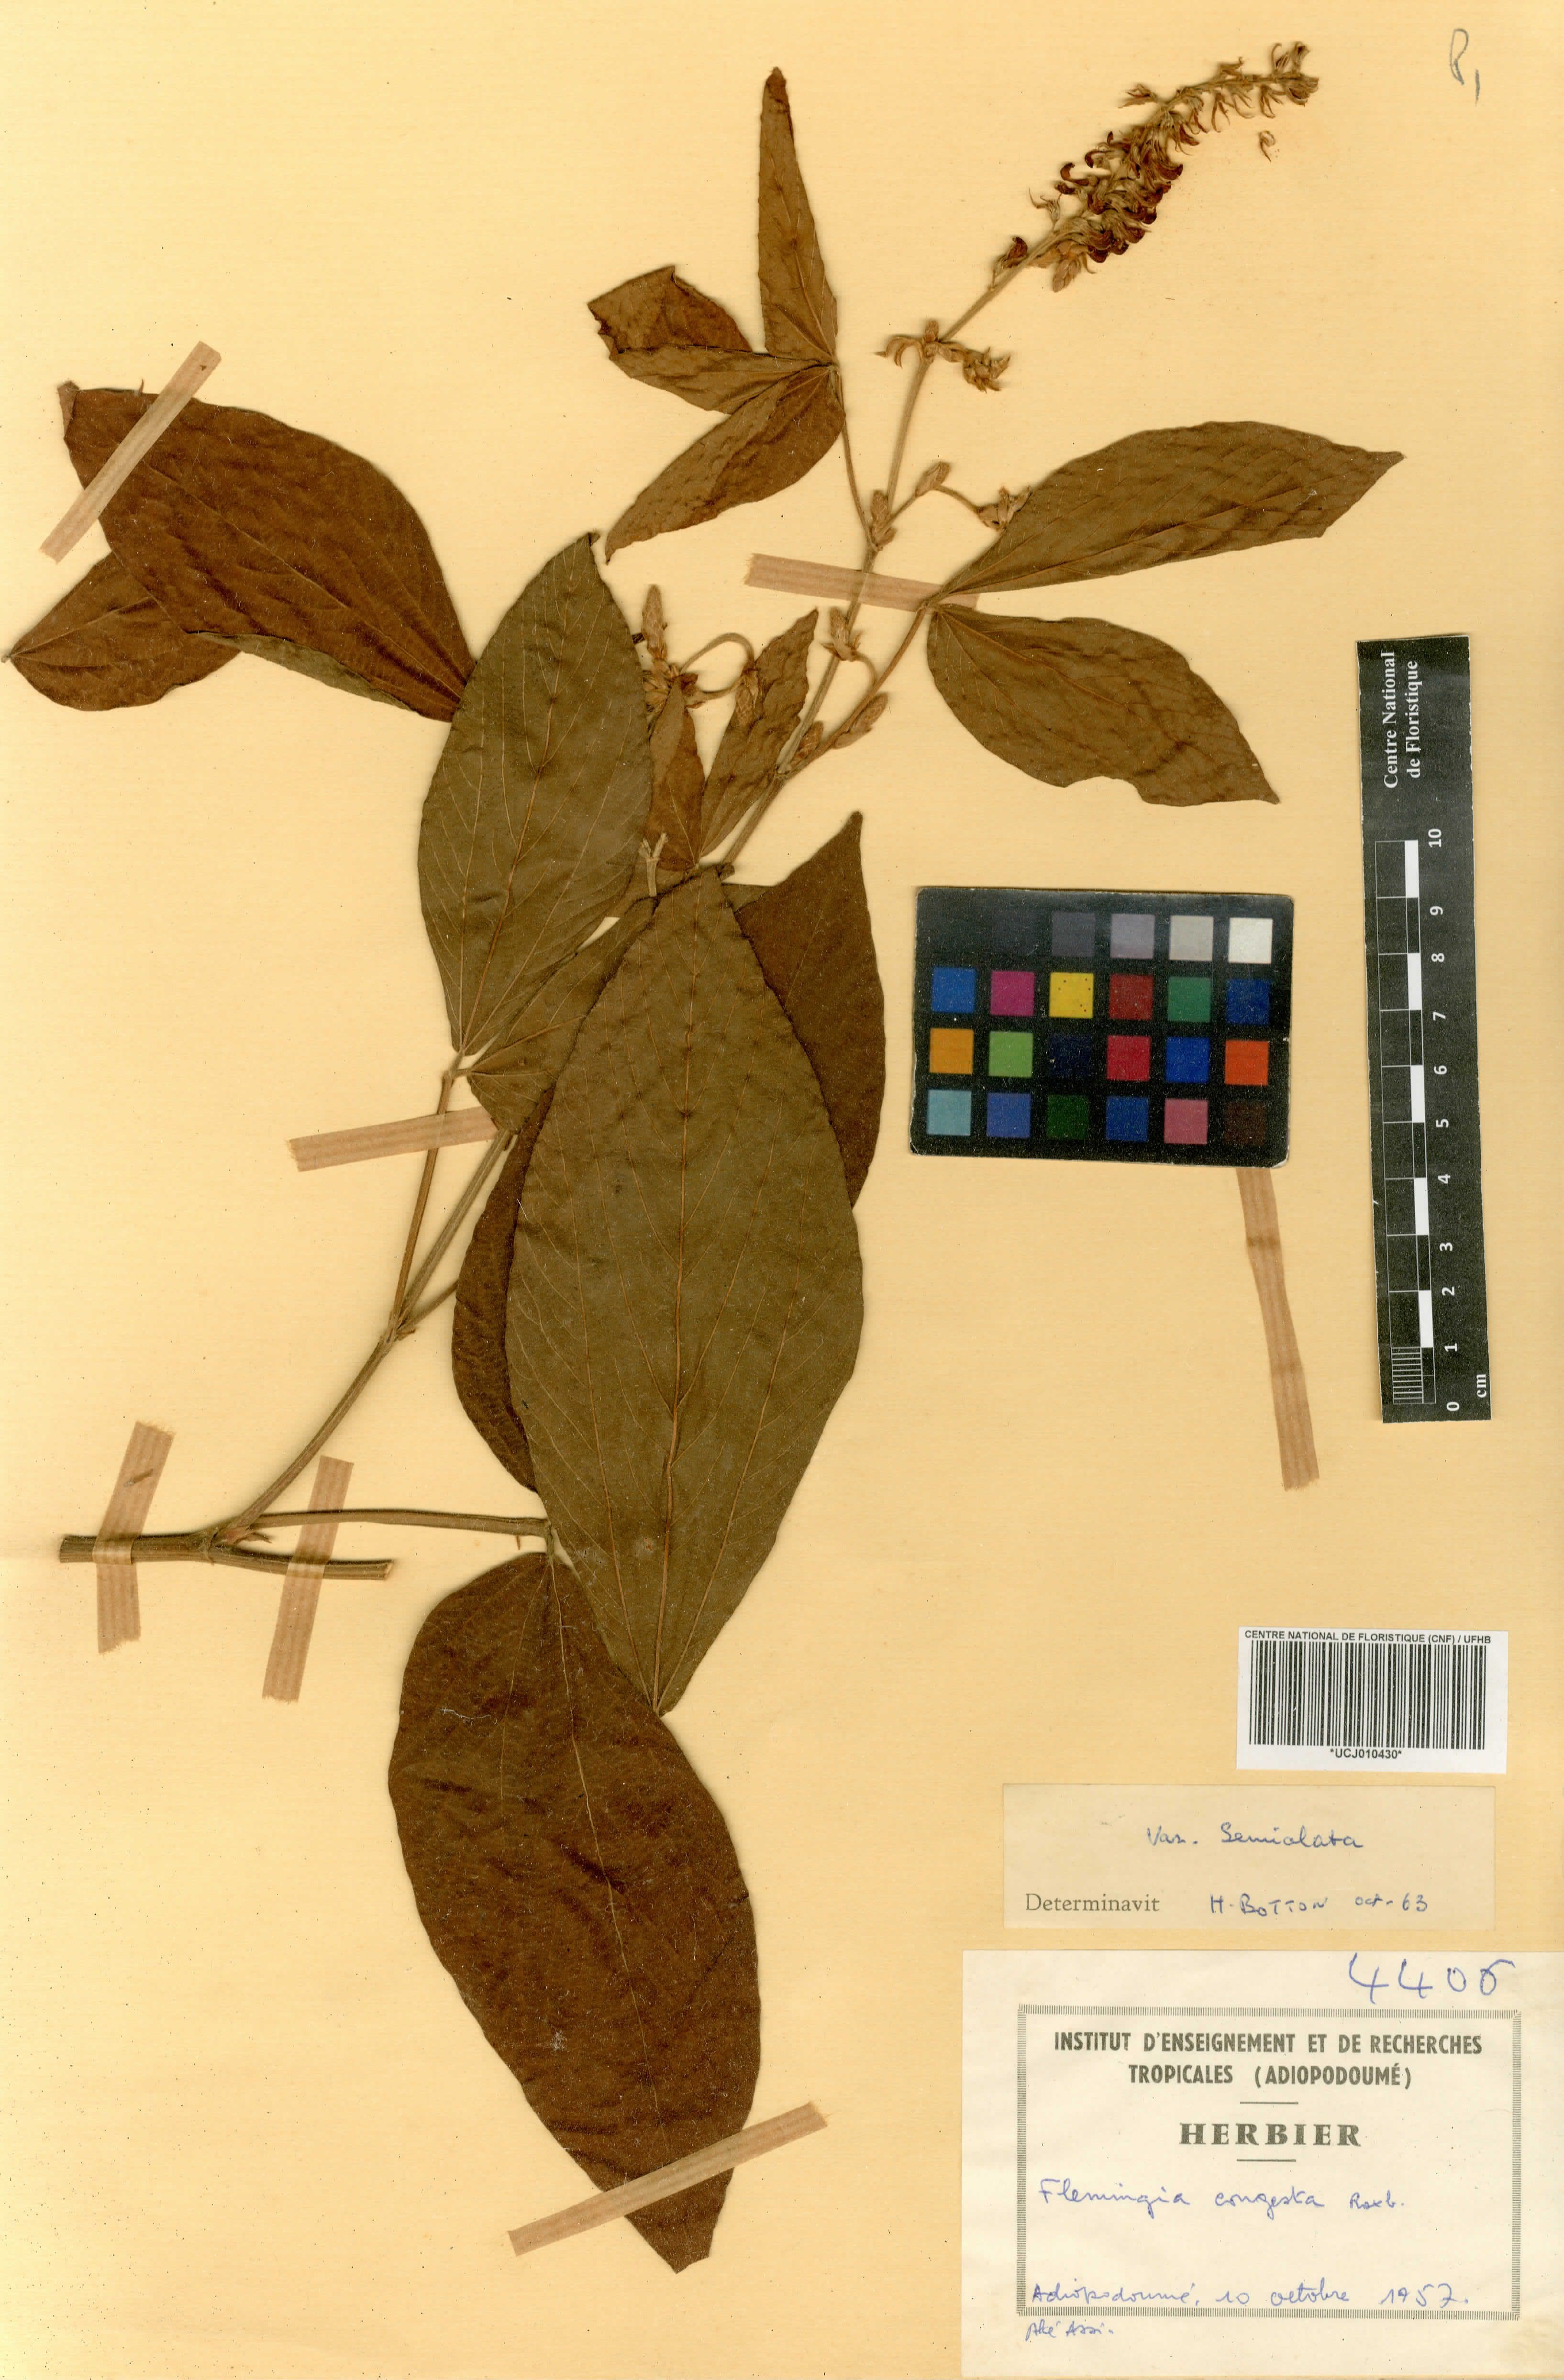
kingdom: Plantae
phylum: Tracheophyta
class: Magnoliopsida
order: Fabales
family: Fabaceae
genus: Flemingia
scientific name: Flemingia congesta
